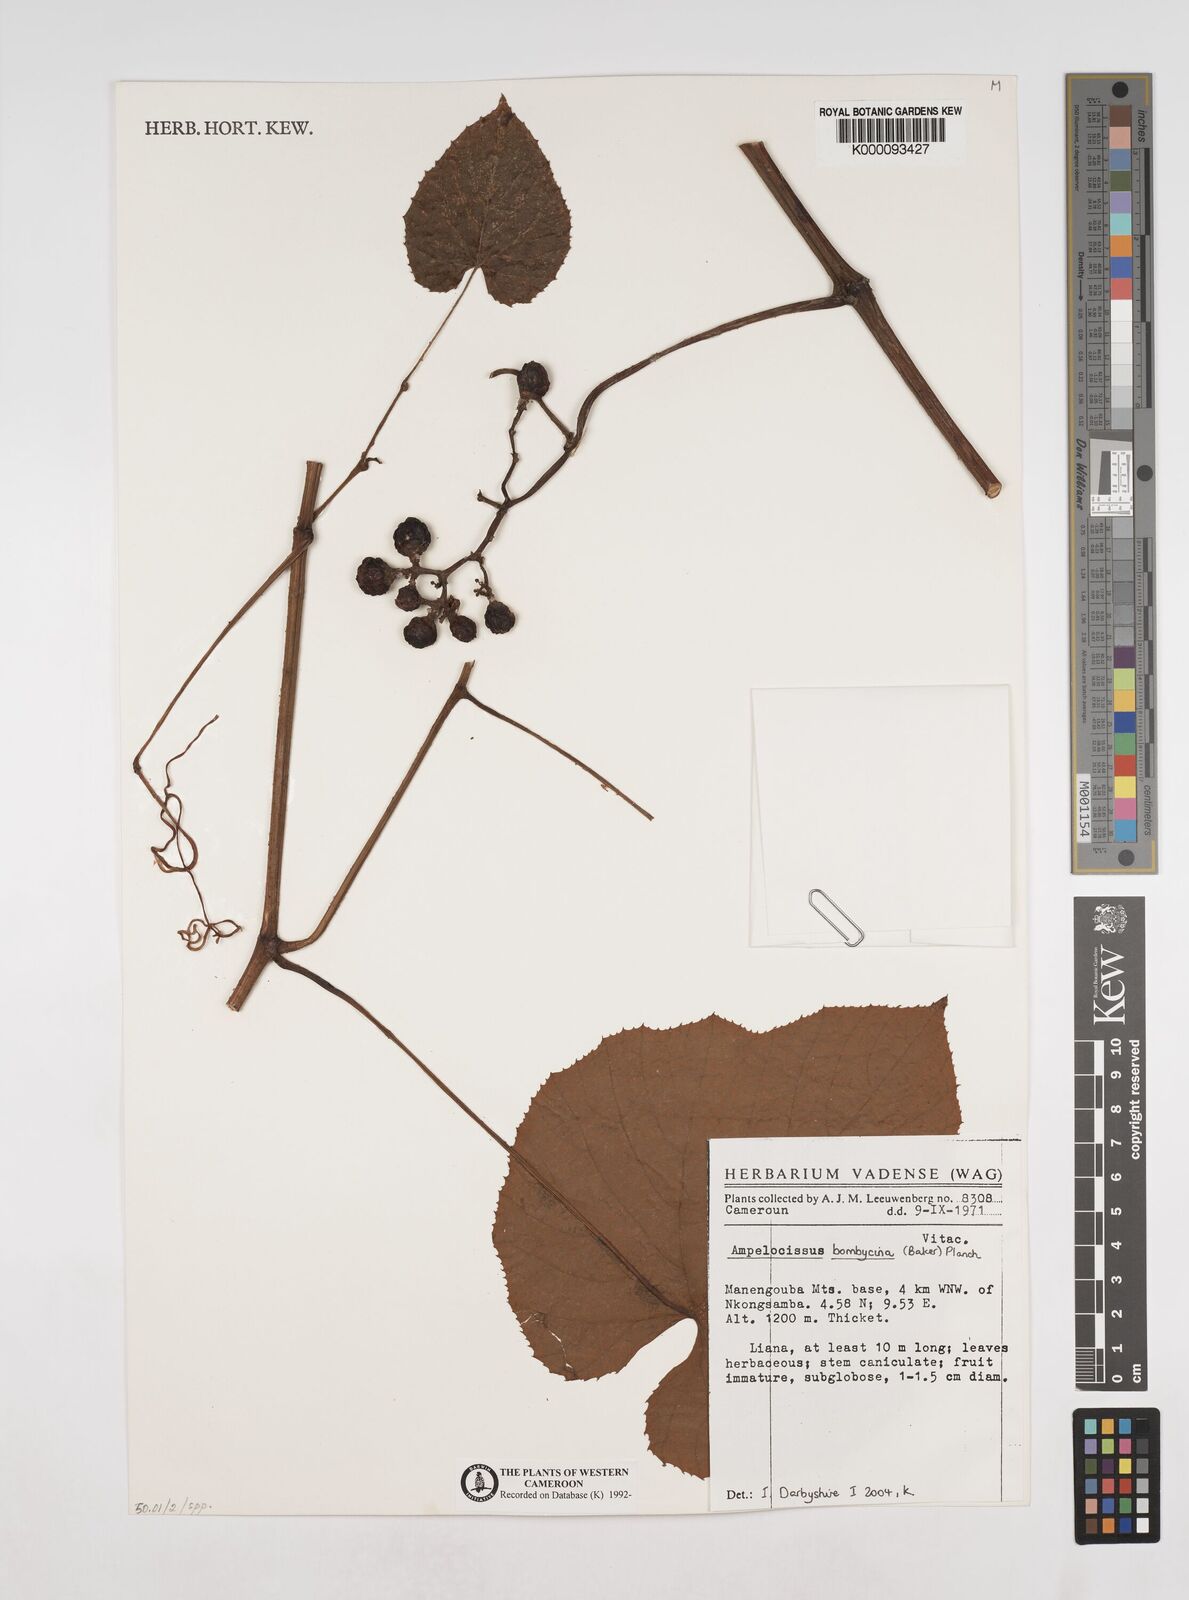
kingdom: Plantae
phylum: Tracheophyta
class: Magnoliopsida
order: Vitales
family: Vitaceae
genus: Ampelocissus
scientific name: Ampelocissus bombycina
